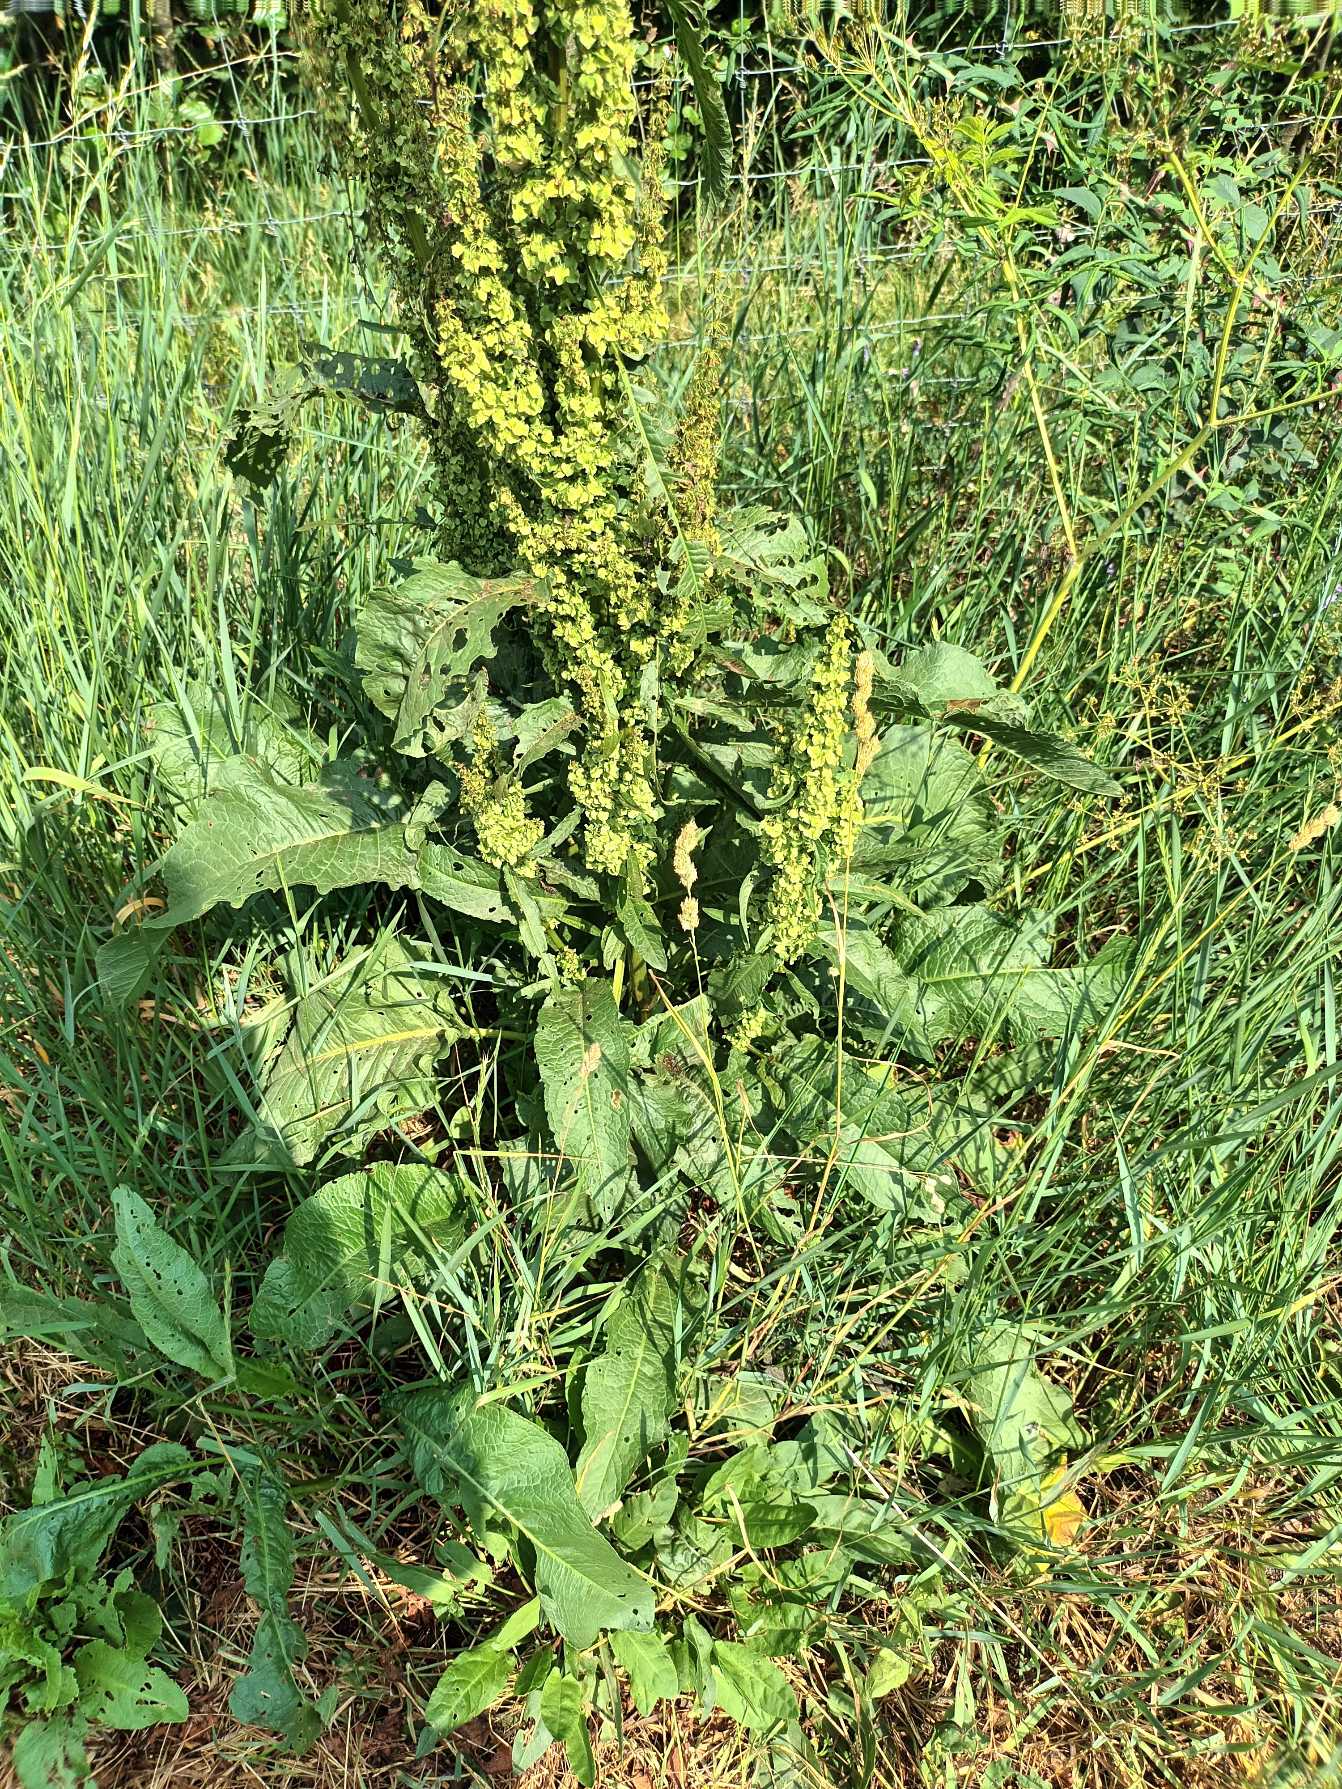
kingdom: Plantae
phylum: Tracheophyta
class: Magnoliopsida
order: Caryophyllales
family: Polygonaceae
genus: Rumex
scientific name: Rumex longifolius
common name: By-skræppe
